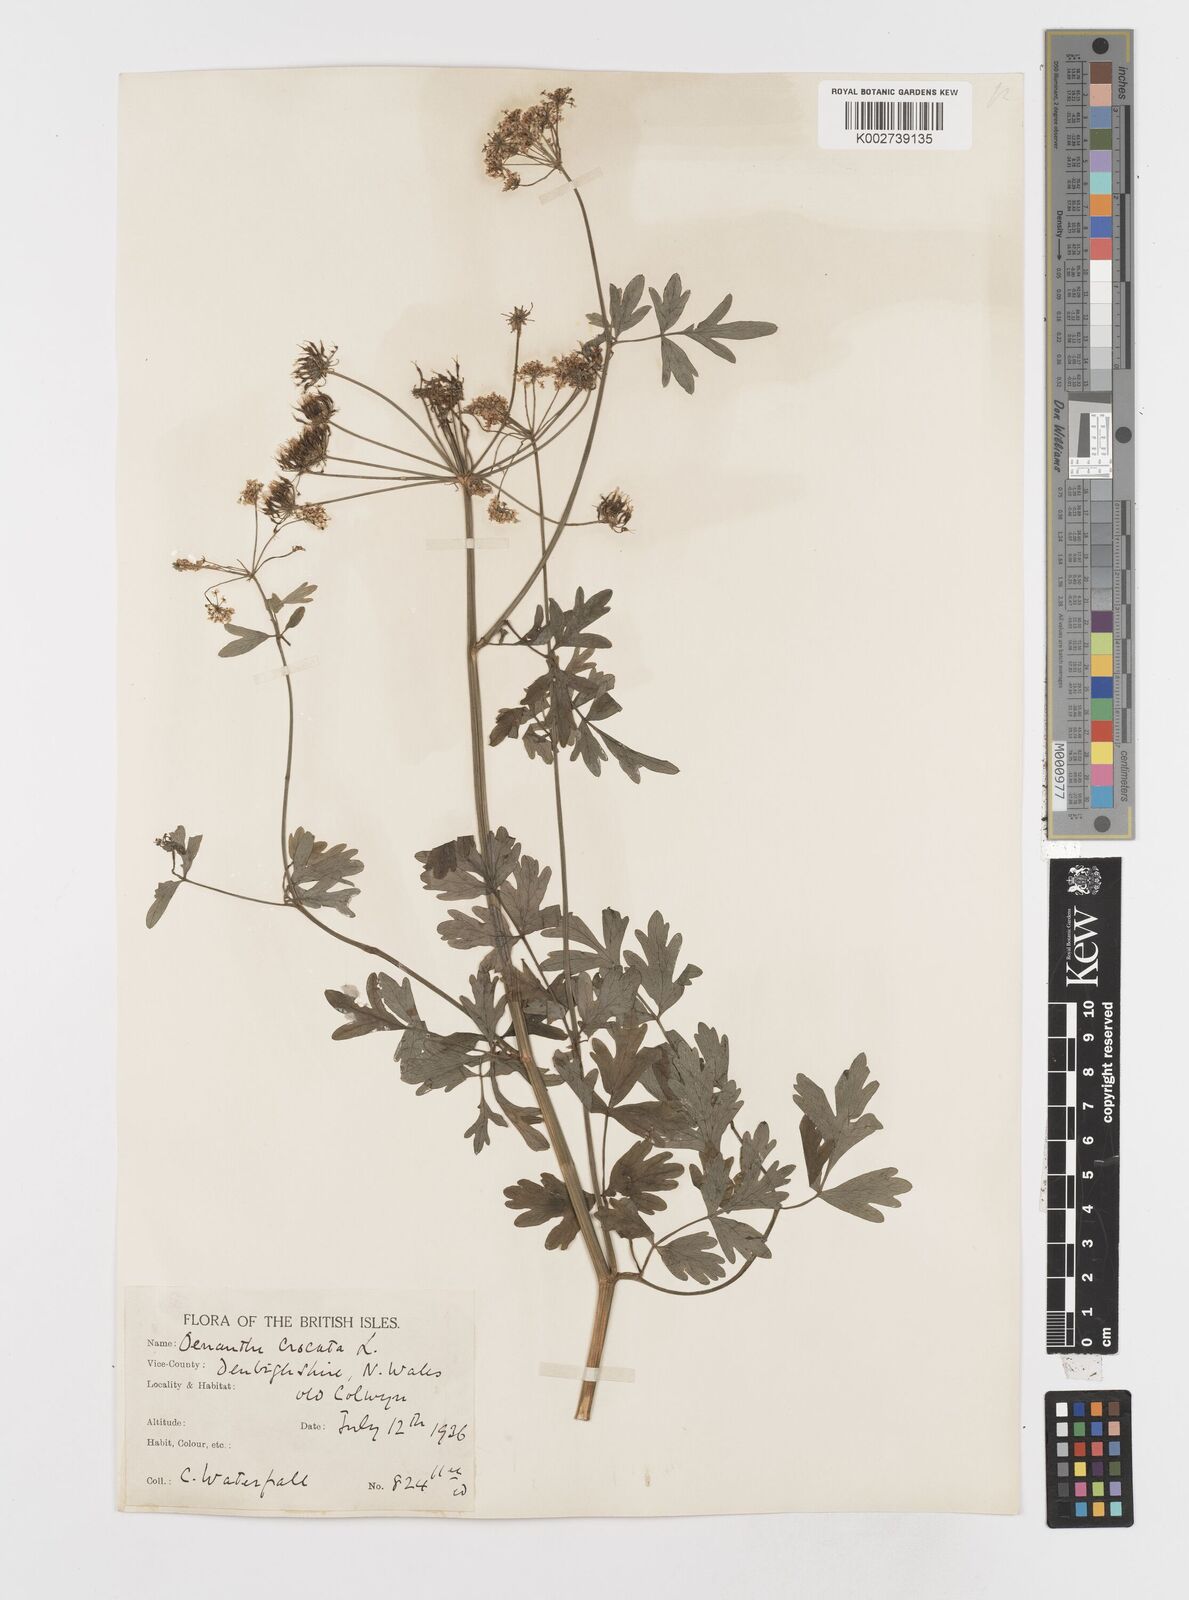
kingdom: Plantae
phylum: Tracheophyta
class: Magnoliopsida
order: Apiales
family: Apiaceae
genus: Oenanthe
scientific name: Oenanthe crocata
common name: Hemlock water-dropwort
